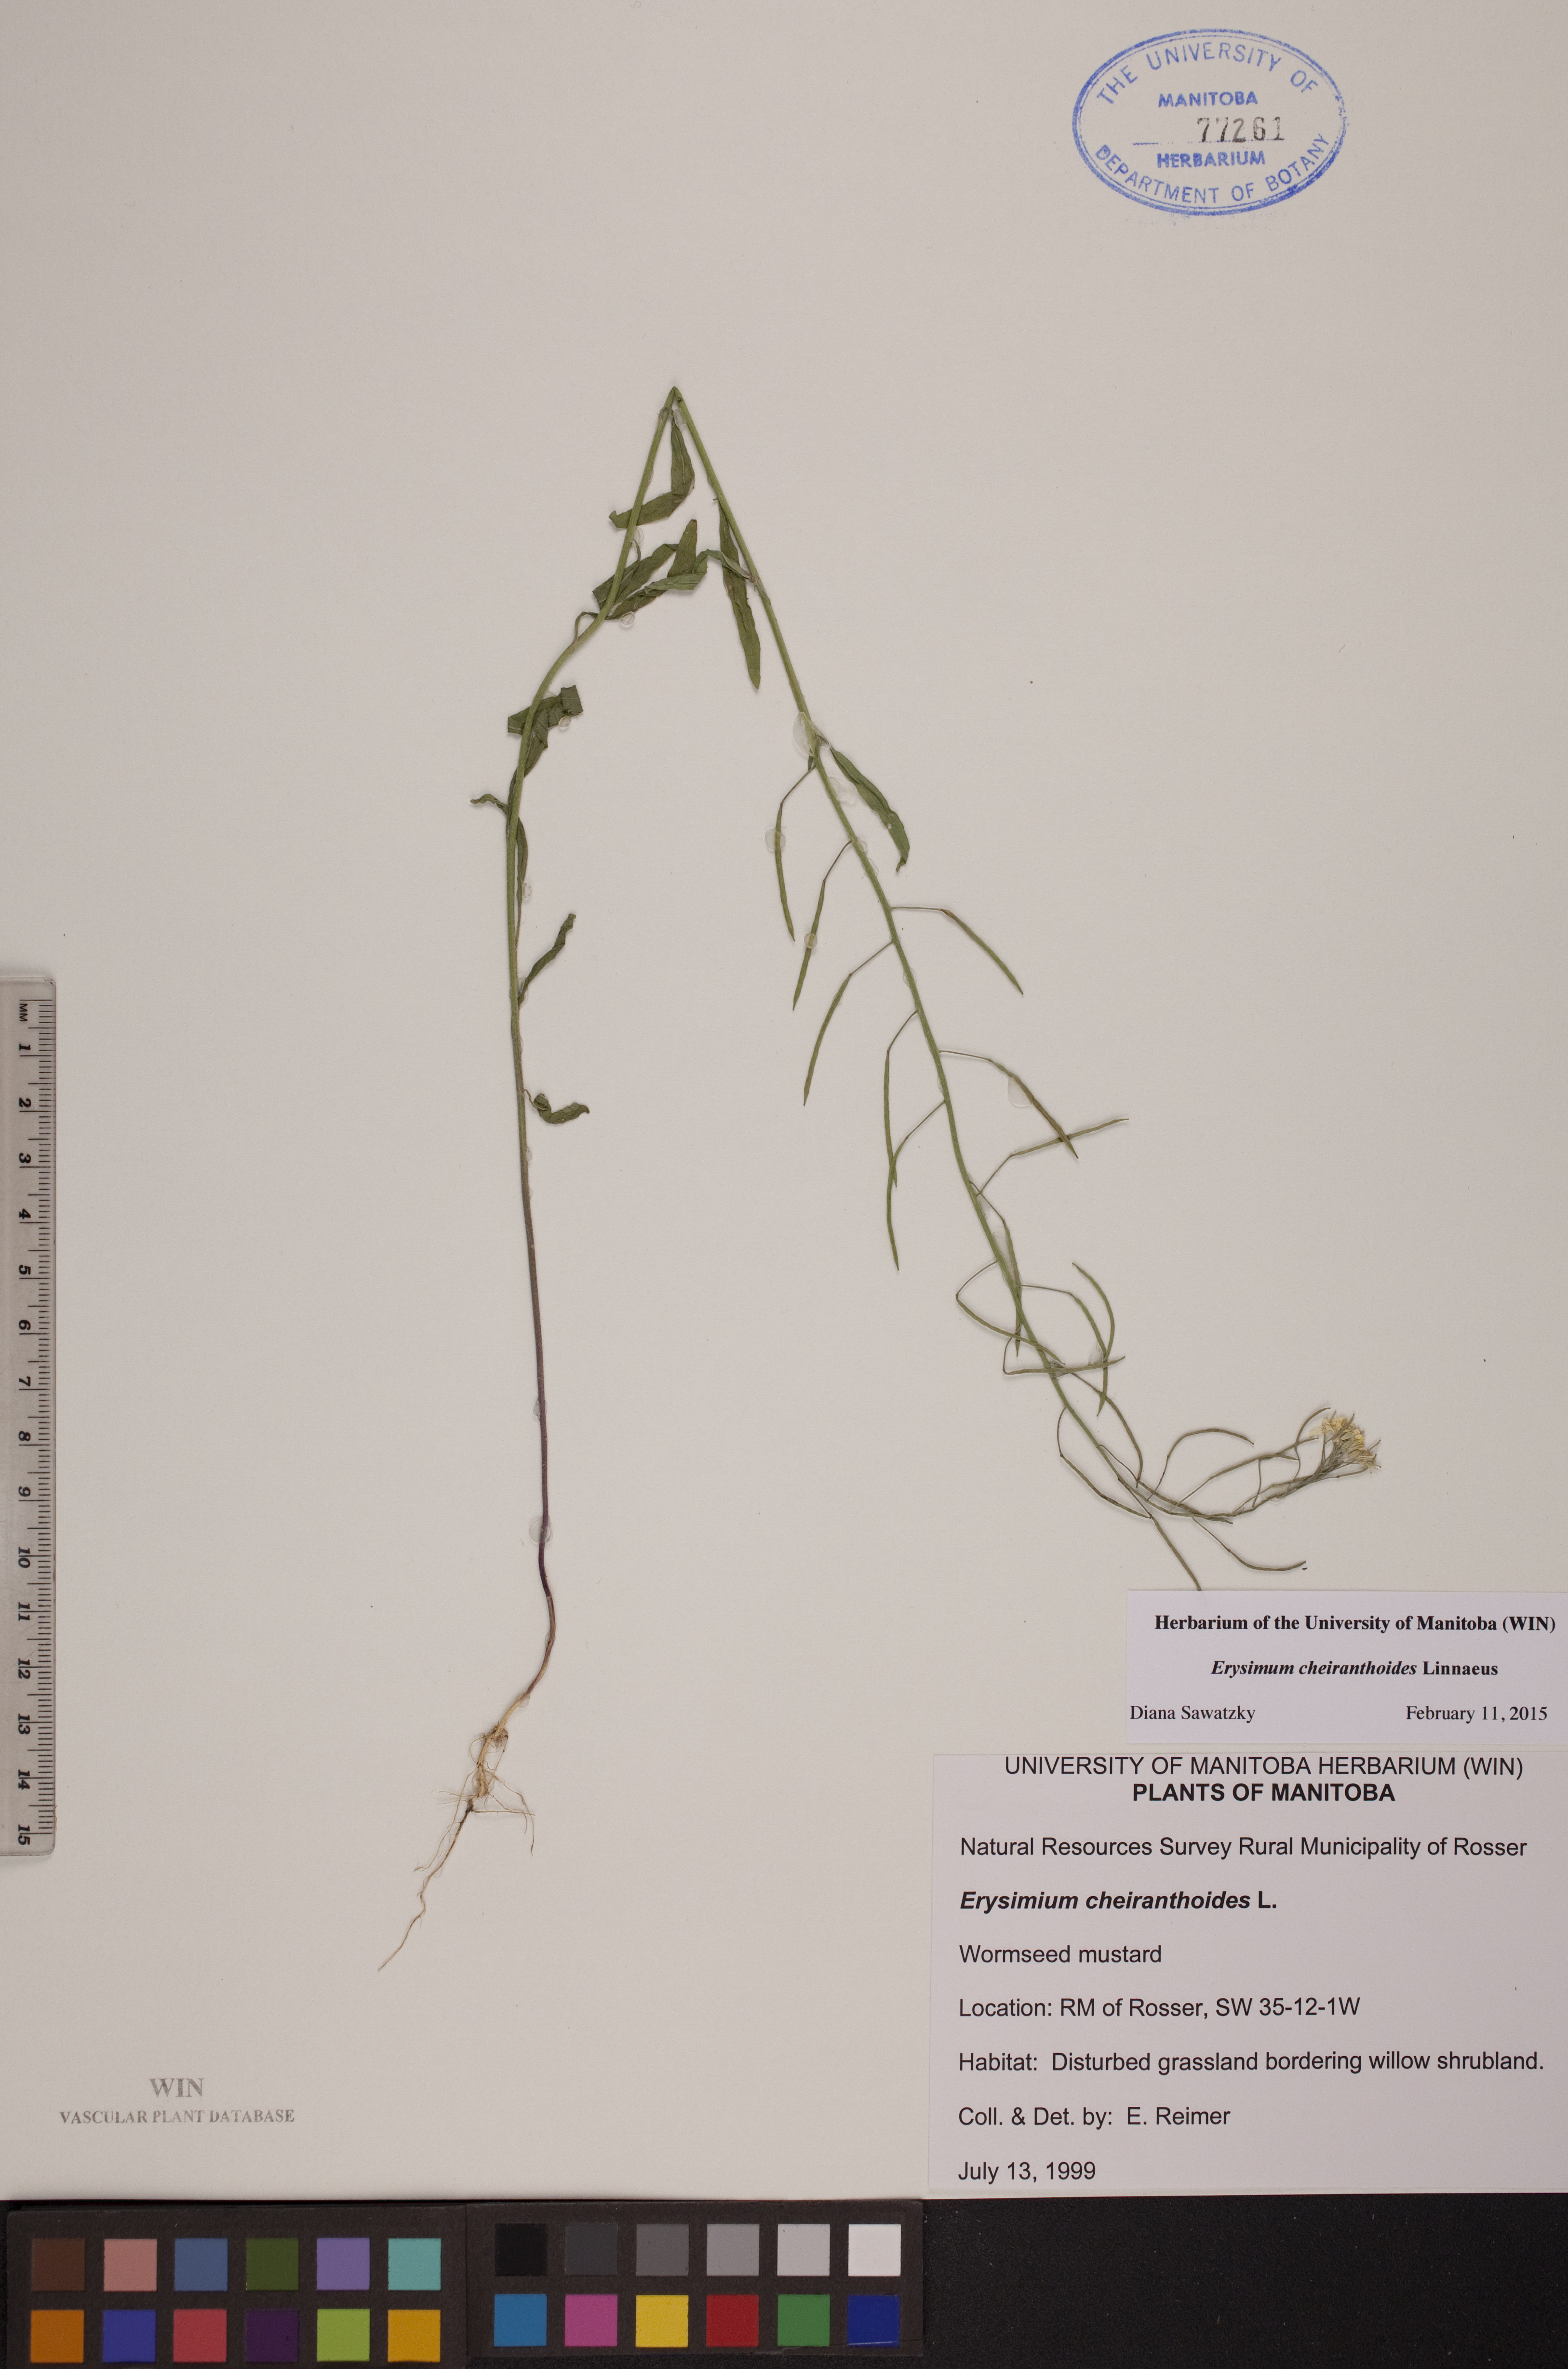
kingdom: Plantae
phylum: Tracheophyta
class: Magnoliopsida
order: Brassicales
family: Brassicaceae
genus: Erysimum
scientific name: Erysimum cheiranthoides
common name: Treacle mustard
